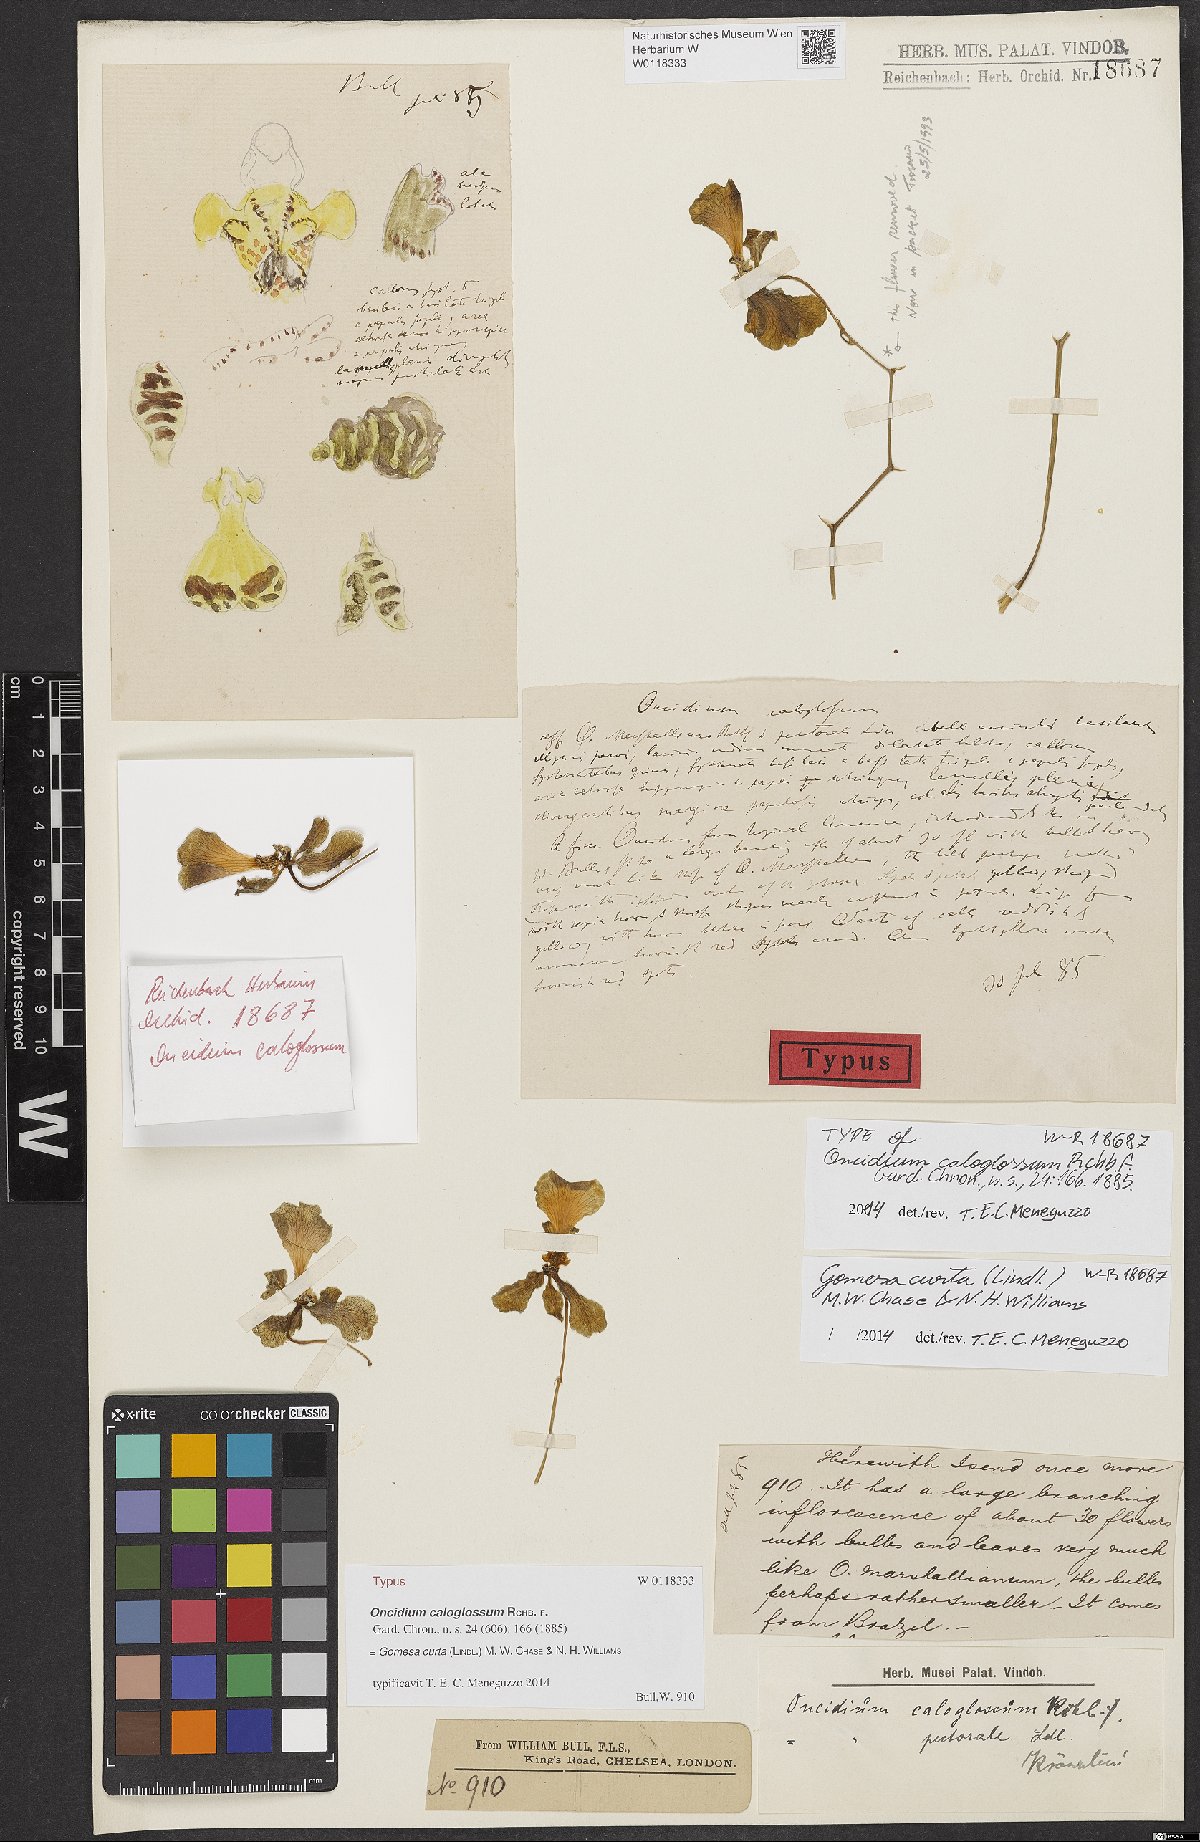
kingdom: Plantae
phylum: Tracheophyta
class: Liliopsida
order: Asparagales
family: Orchidaceae
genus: Gomesa
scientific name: Gomesa gardneri
